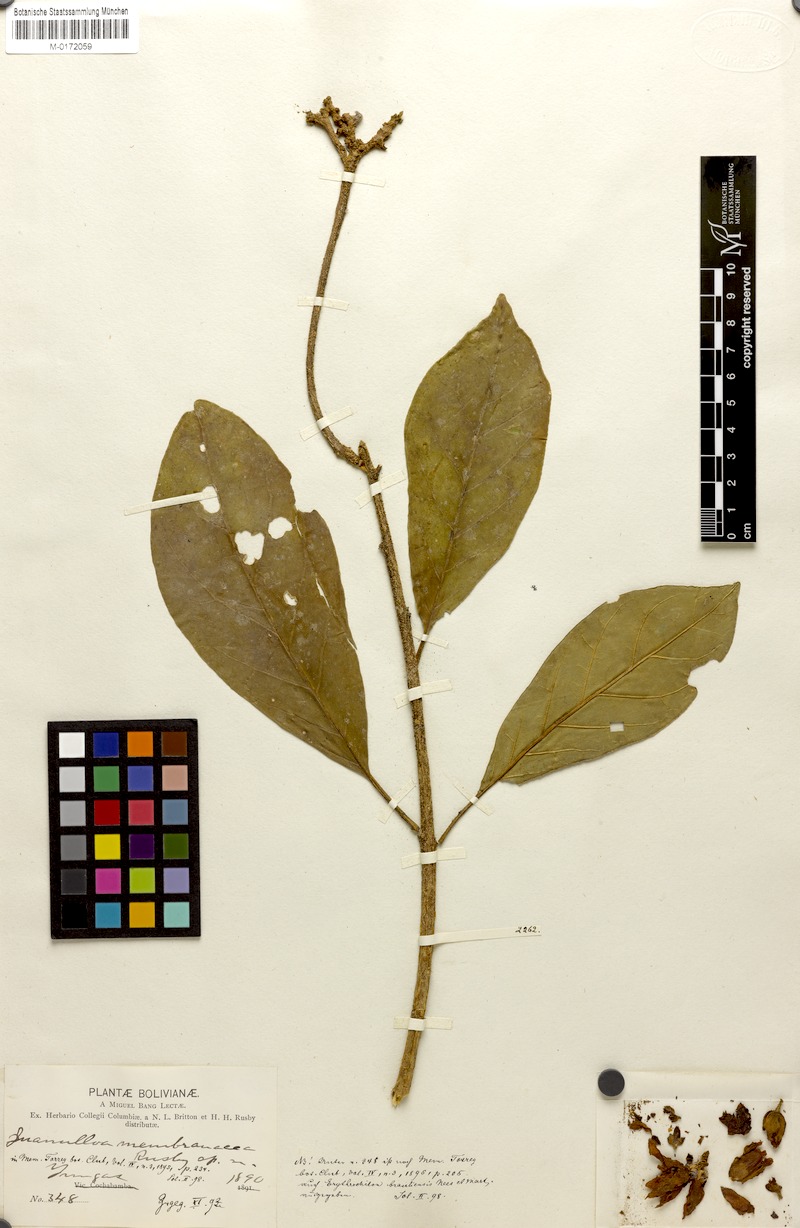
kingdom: Plantae
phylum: Tracheophyta
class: Magnoliopsida
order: Solanales
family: Solanaceae
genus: Juanulloa
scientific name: Juanulloa parasitica
